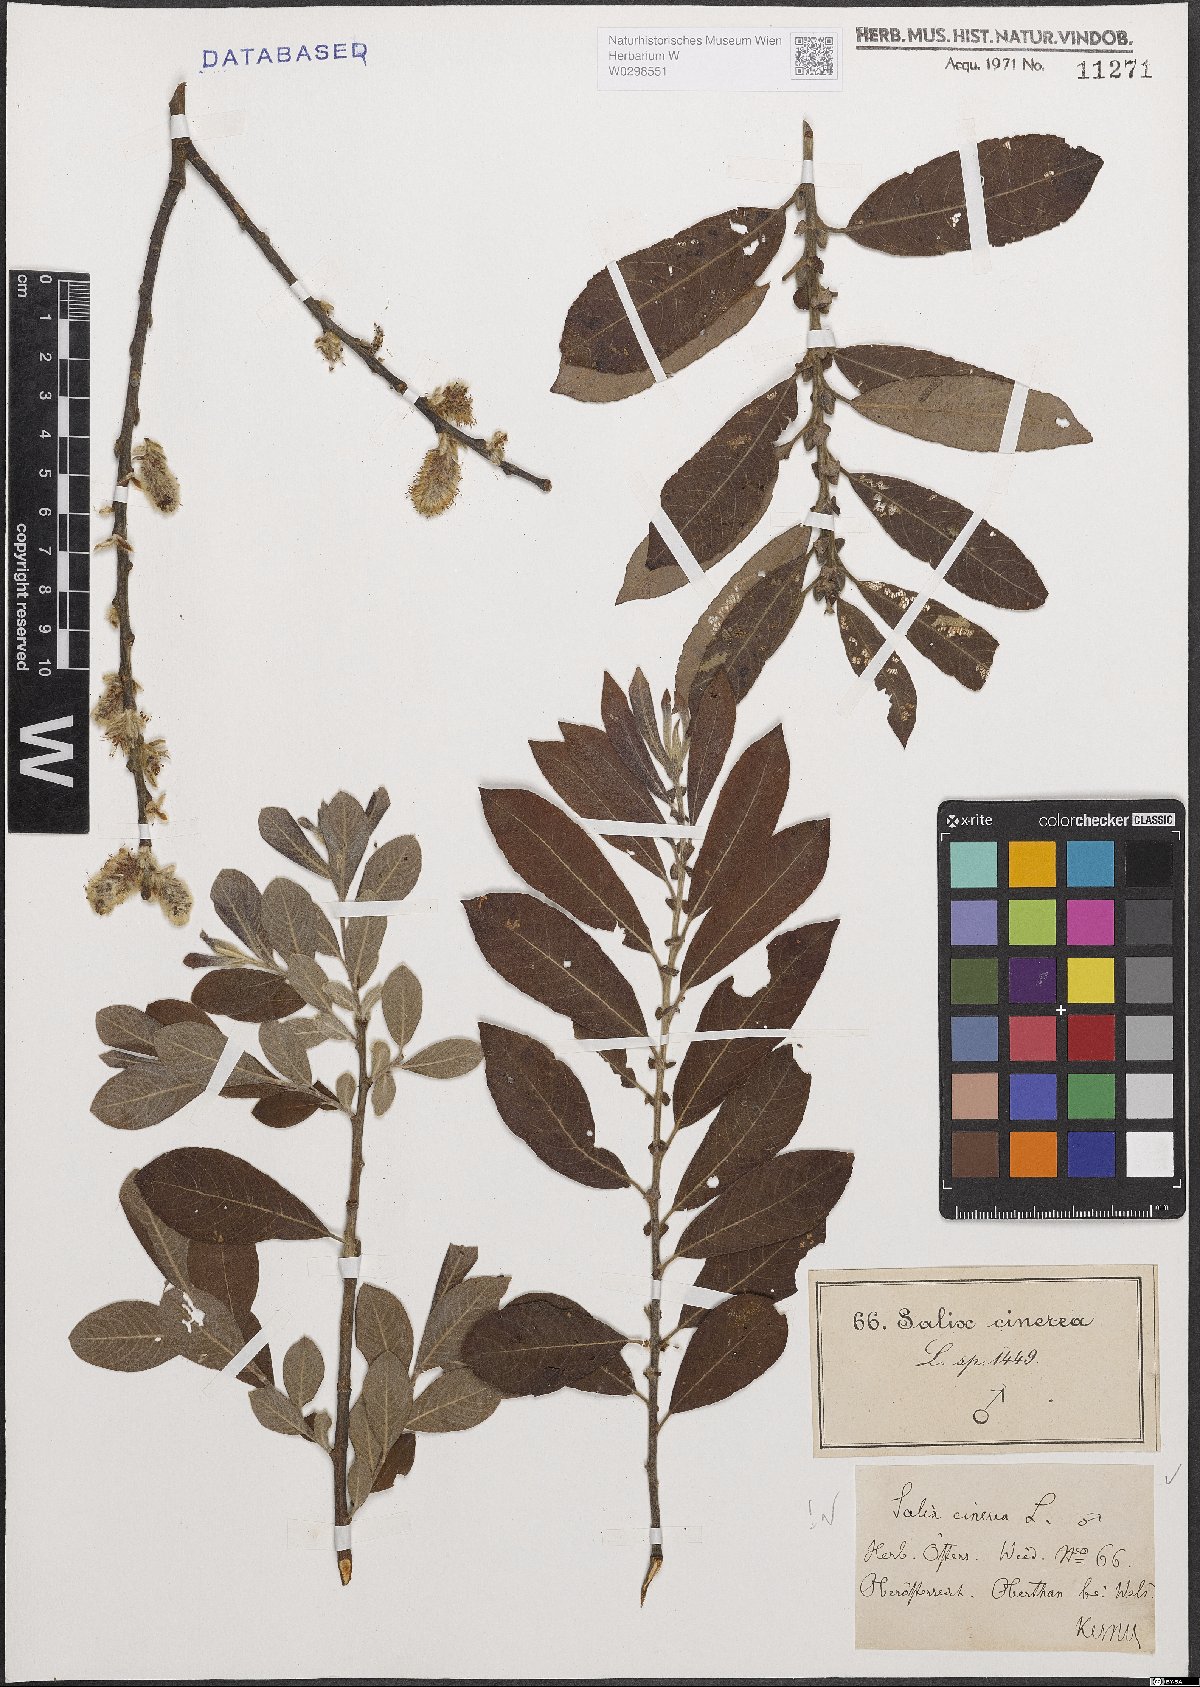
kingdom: Plantae
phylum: Tracheophyta
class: Magnoliopsida
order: Malpighiales
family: Salicaceae
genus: Salix
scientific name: Salix cinerea
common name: Common sallow
